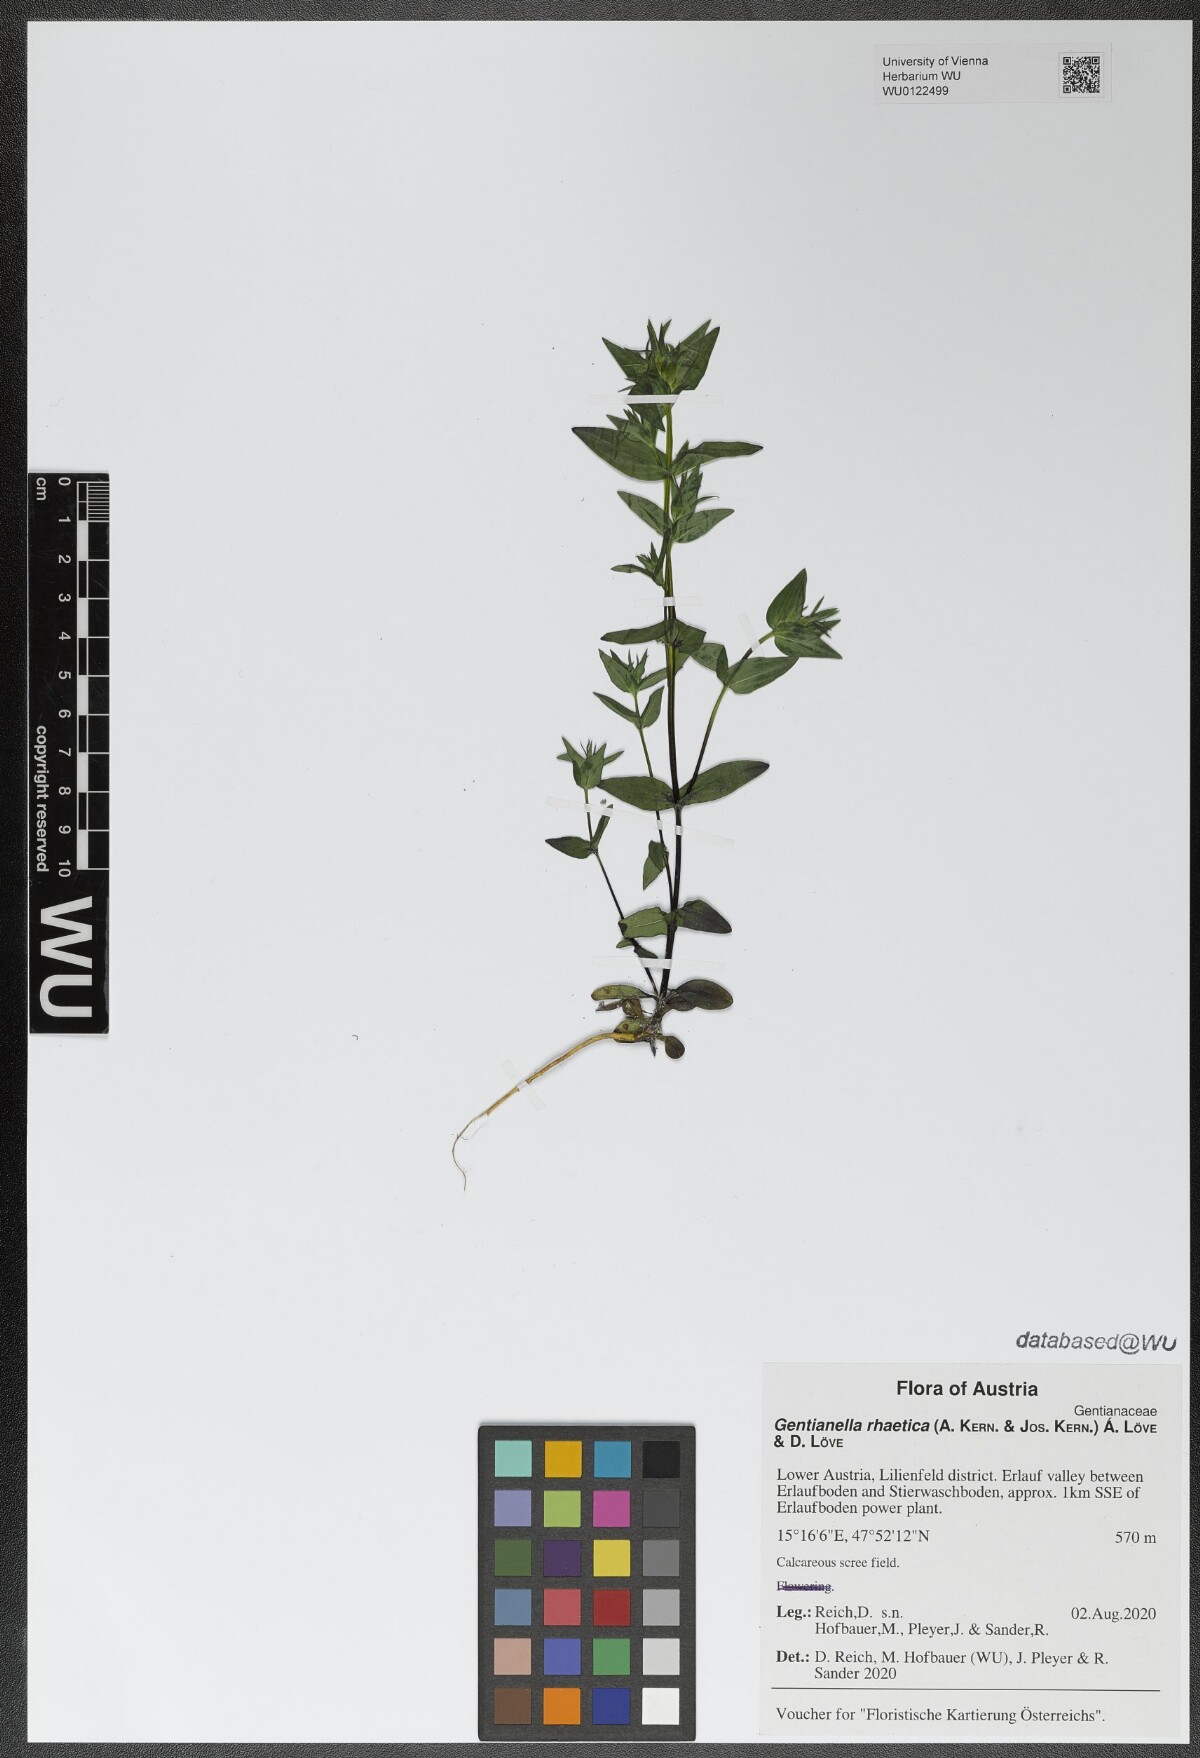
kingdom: Plantae
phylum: Tracheophyta
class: Magnoliopsida
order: Gentianales
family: Gentianaceae
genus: Gentianella
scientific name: Gentianella rhaetica
